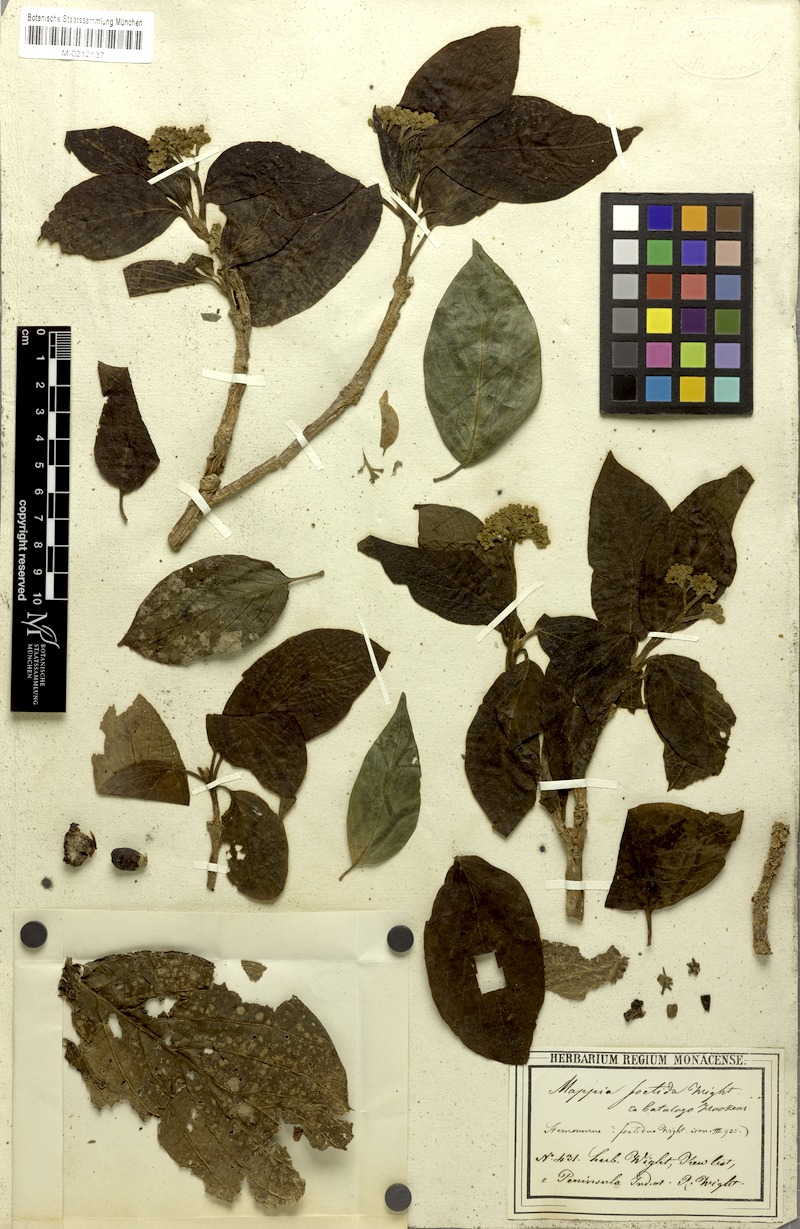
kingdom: Plantae
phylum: Tracheophyta
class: Magnoliopsida
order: Icacinales
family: Icacinaceae
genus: Nothapodytes
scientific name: Nothapodytes nimmoniana
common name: Nothapodytes
